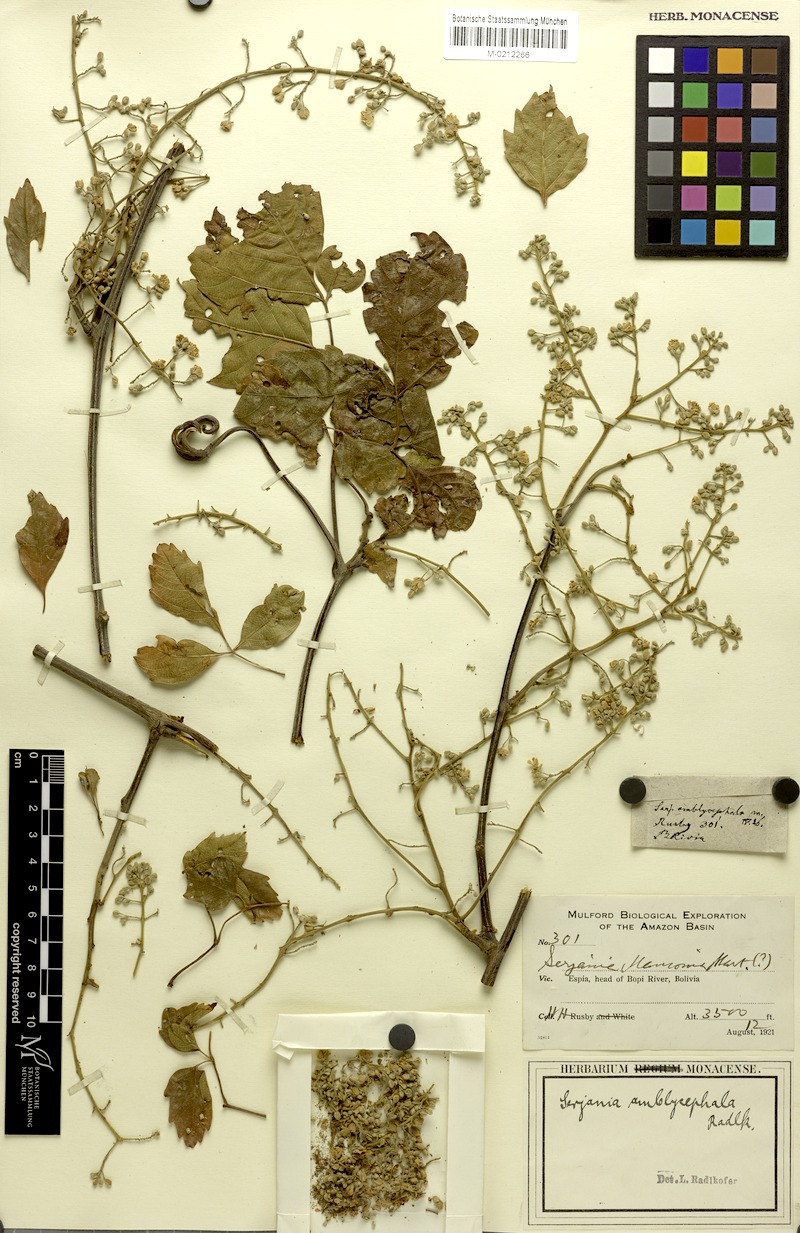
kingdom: Plantae
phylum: Tracheophyta
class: Magnoliopsida
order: Sapindales
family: Sapindaceae
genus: Serjania
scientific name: Serjania
